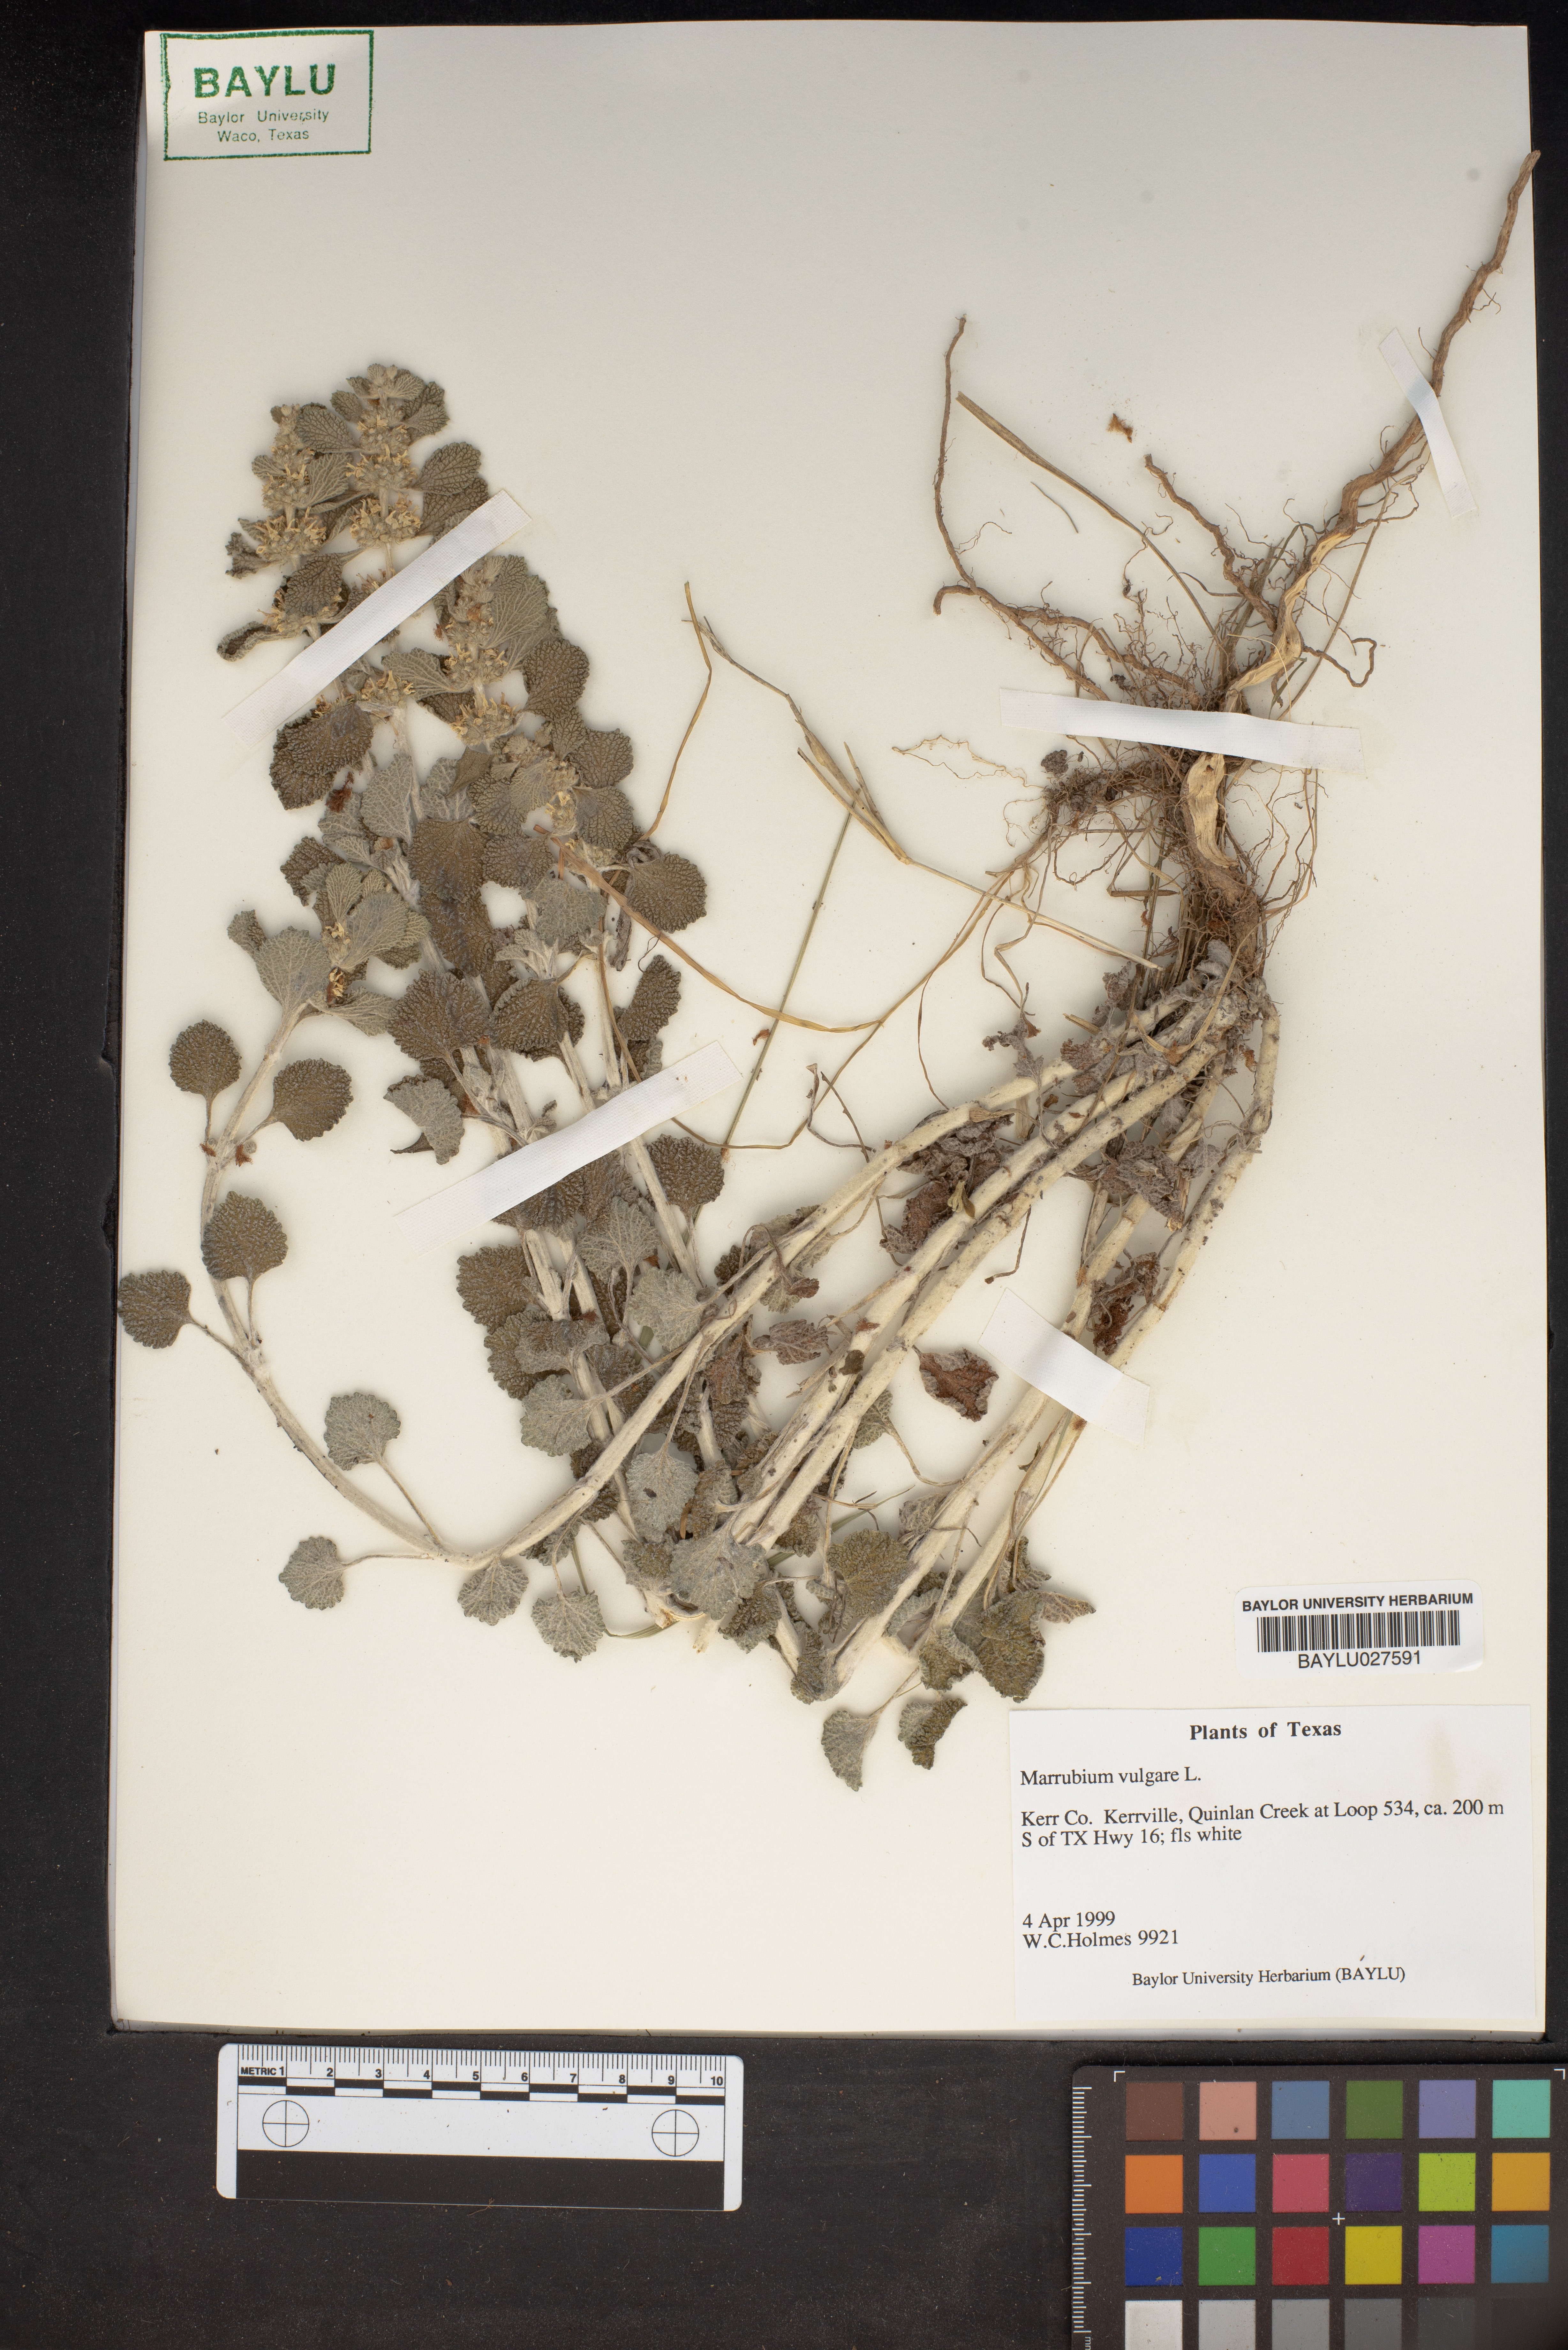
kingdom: Plantae
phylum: Tracheophyta
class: Magnoliopsida
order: Lamiales
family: Lamiaceae
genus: Marrubium
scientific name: Marrubium vulgare
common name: Horehound
